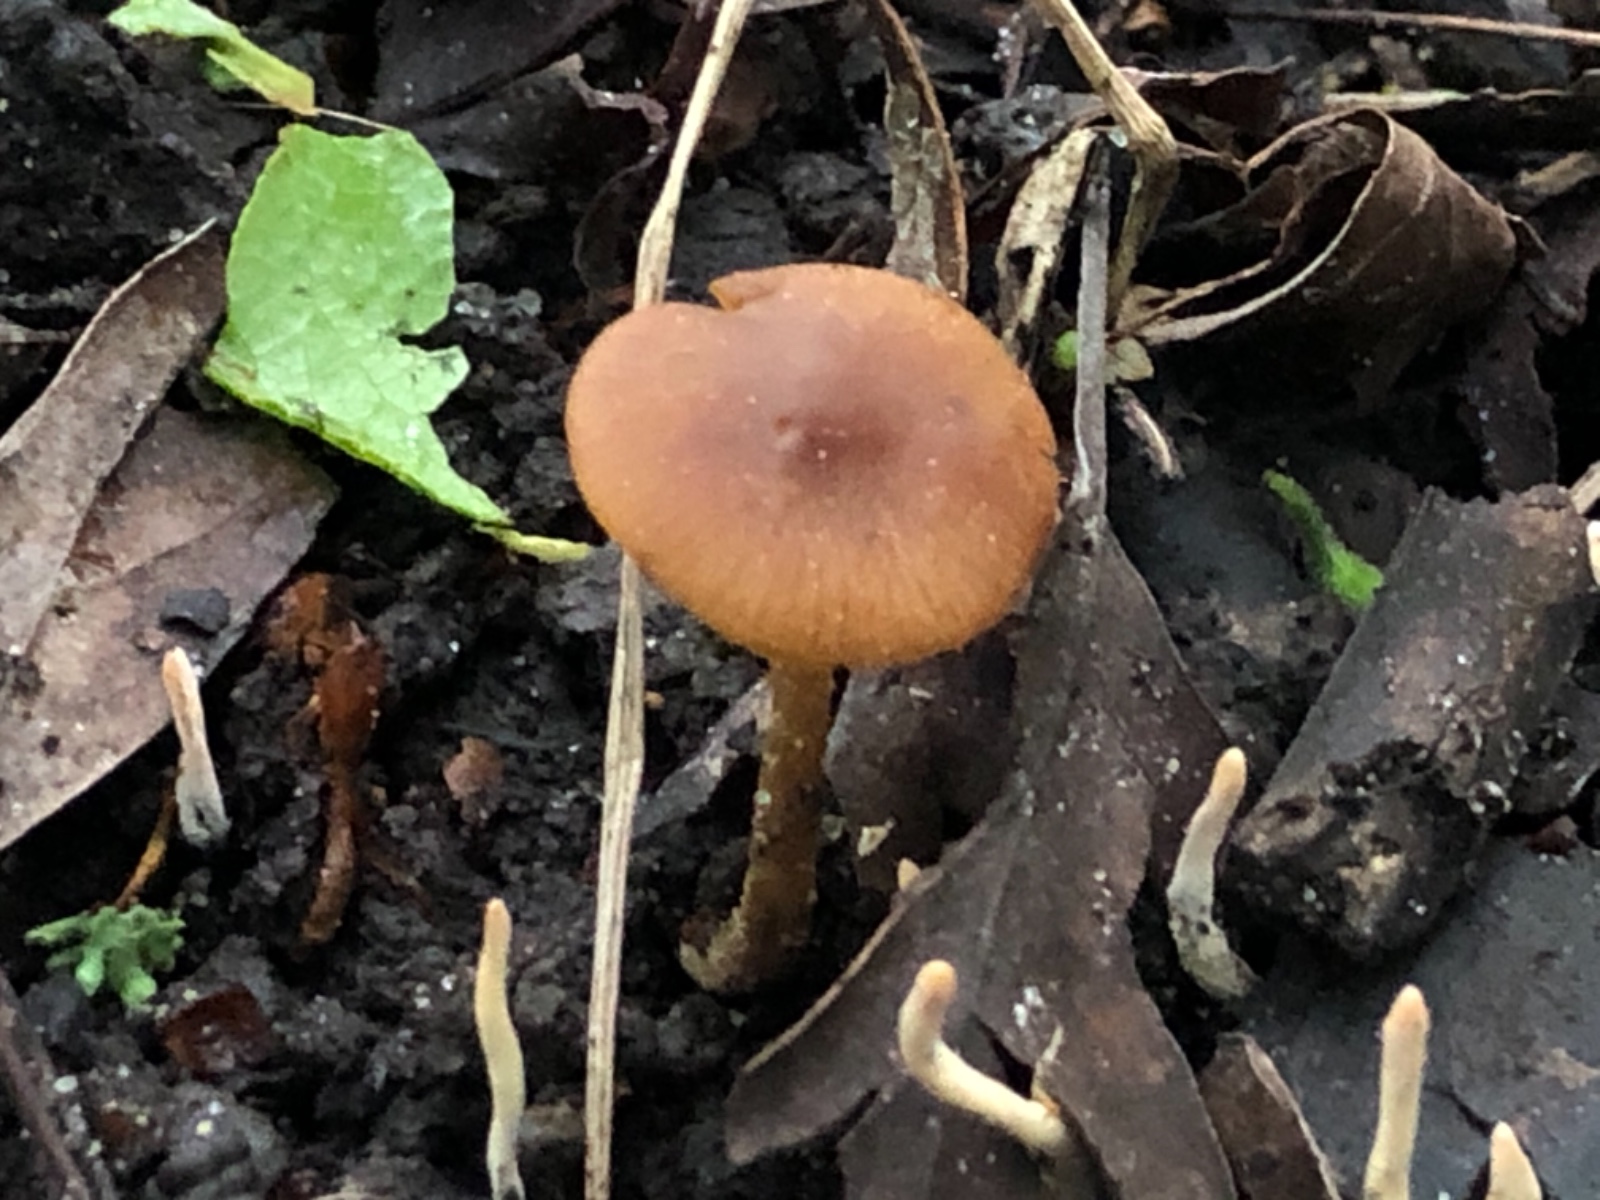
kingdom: Fungi
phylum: Basidiomycota
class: Agaricomycetes
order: Agaricales
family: Bolbitiaceae
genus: Conocybe
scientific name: Conocybe aporos
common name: tidlig dansehat
